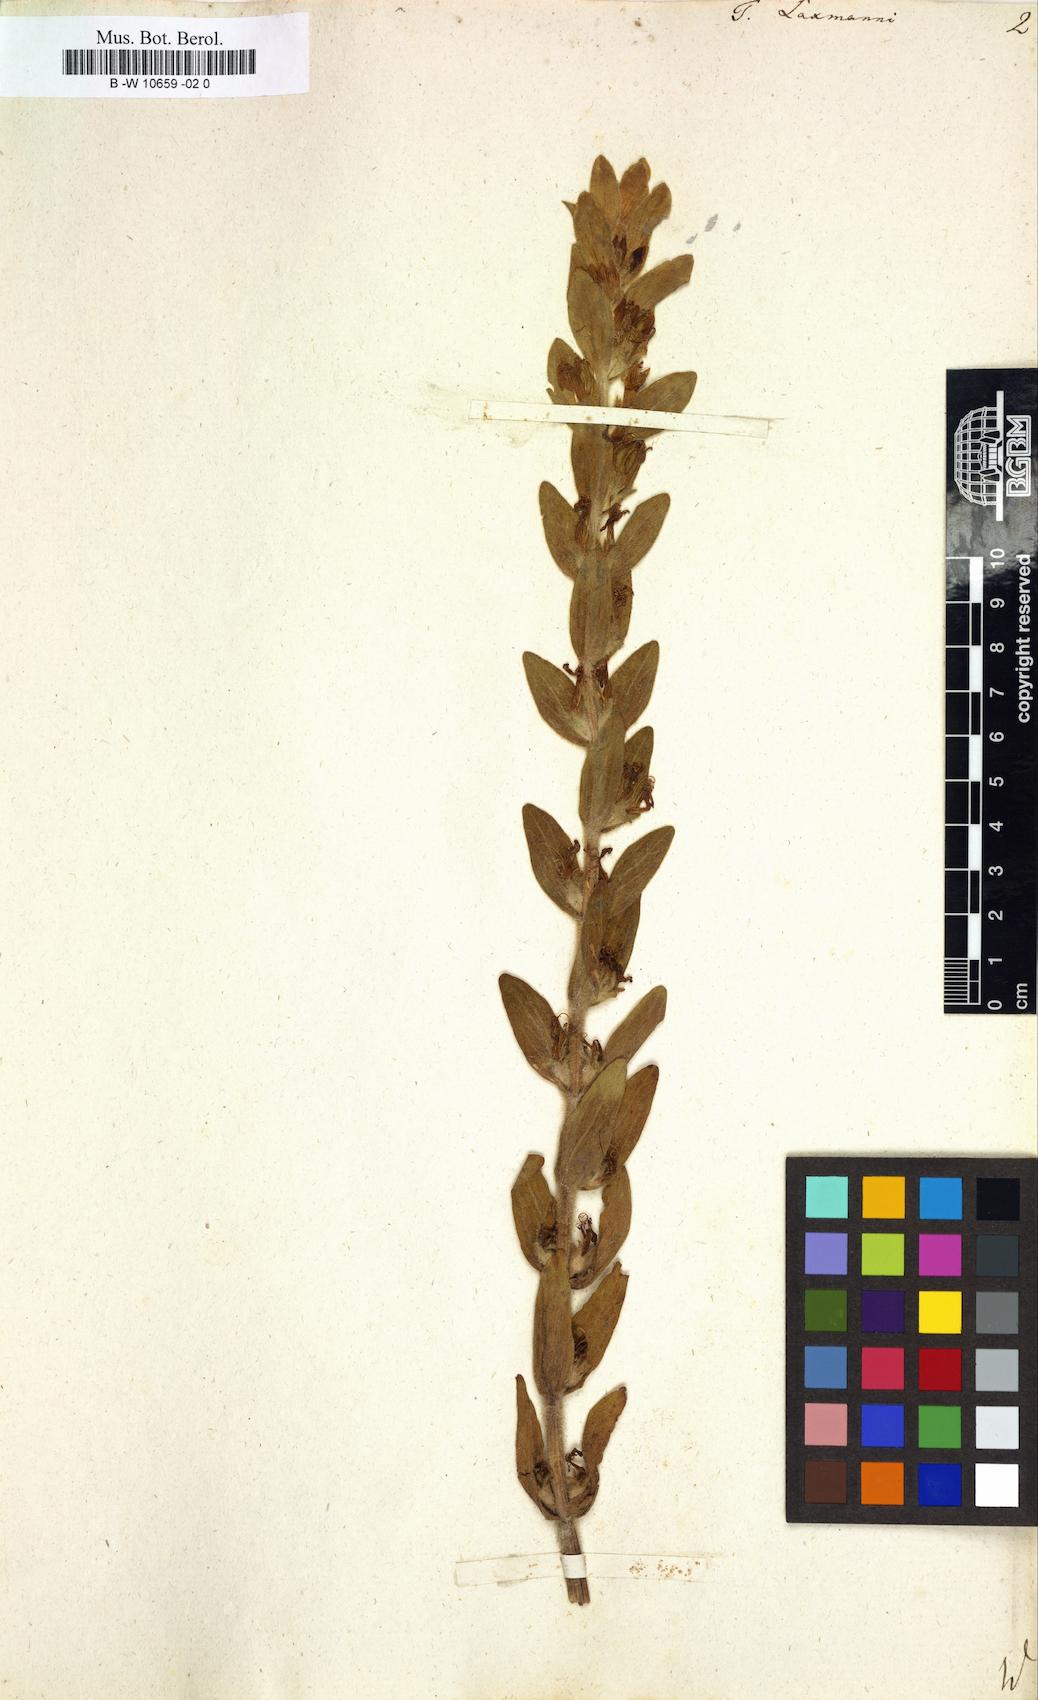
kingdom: Plantae
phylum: Tracheophyta
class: Magnoliopsida
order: Lamiales
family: Lamiaceae
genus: Ajuga
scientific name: Ajuga laxmannii
